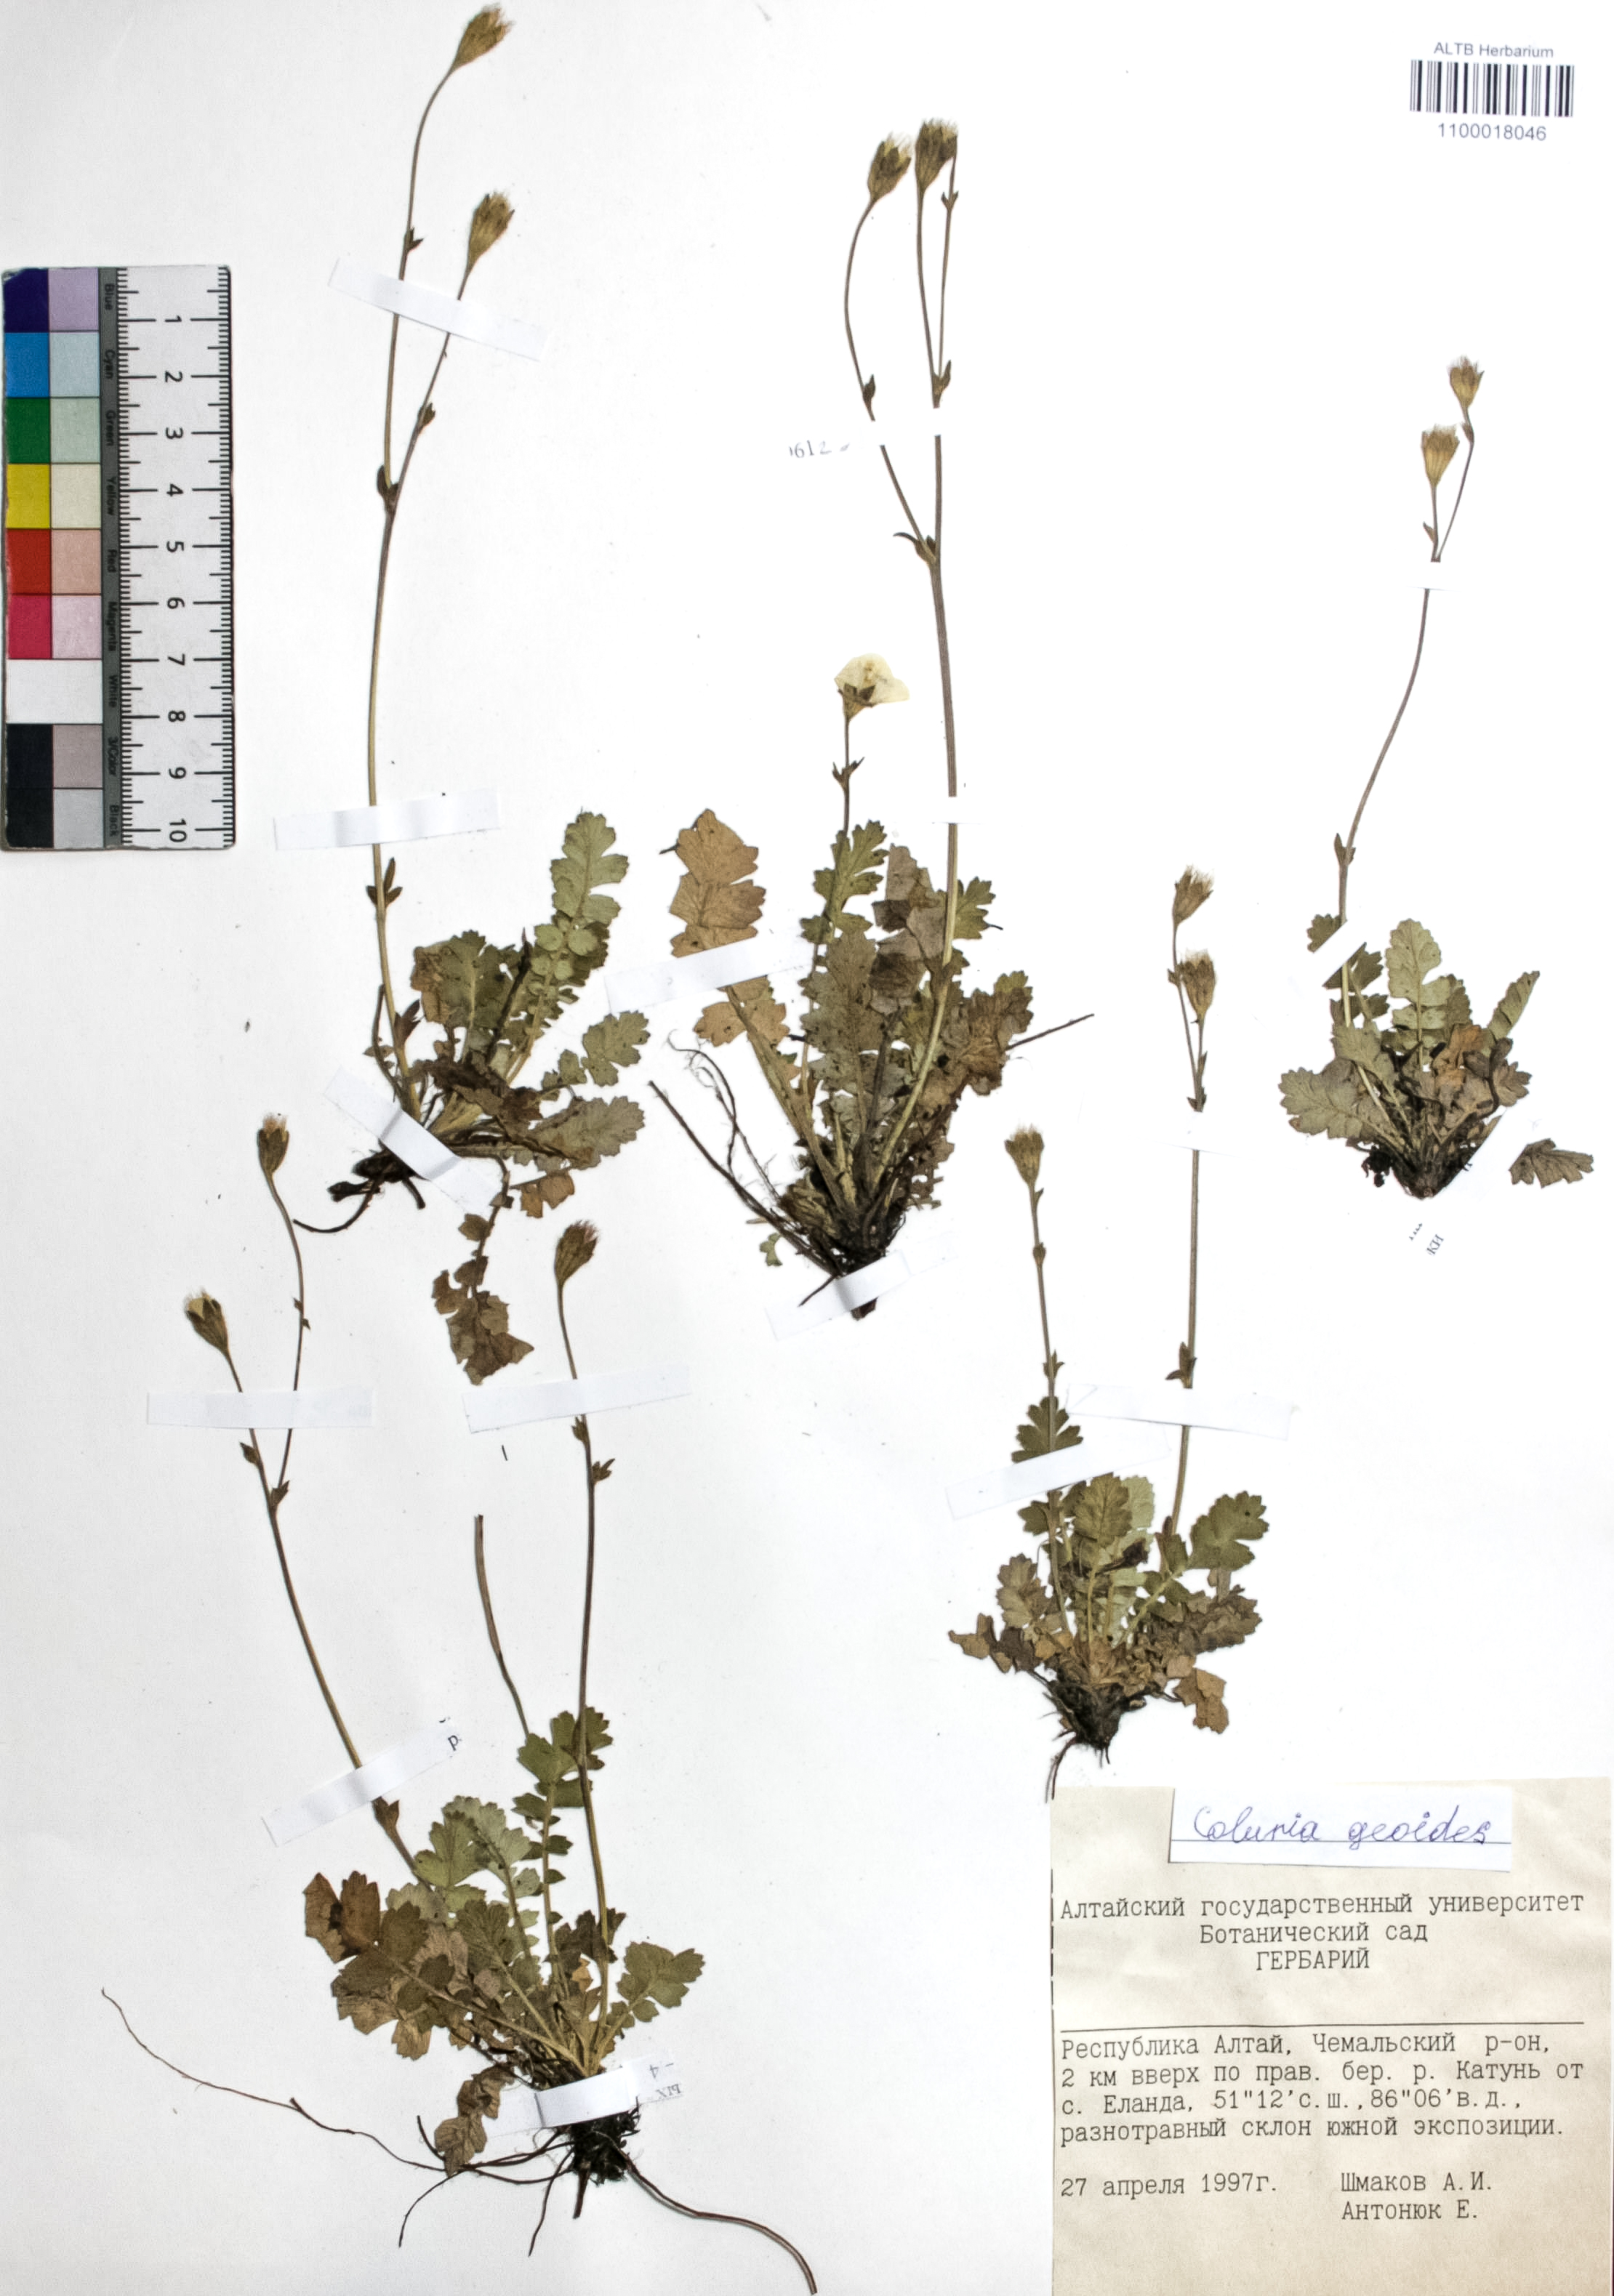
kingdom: Plantae
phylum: Tracheophyta
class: Magnoliopsida
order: Rosales
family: Rosaceae
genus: Geum
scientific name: Geum geoides
